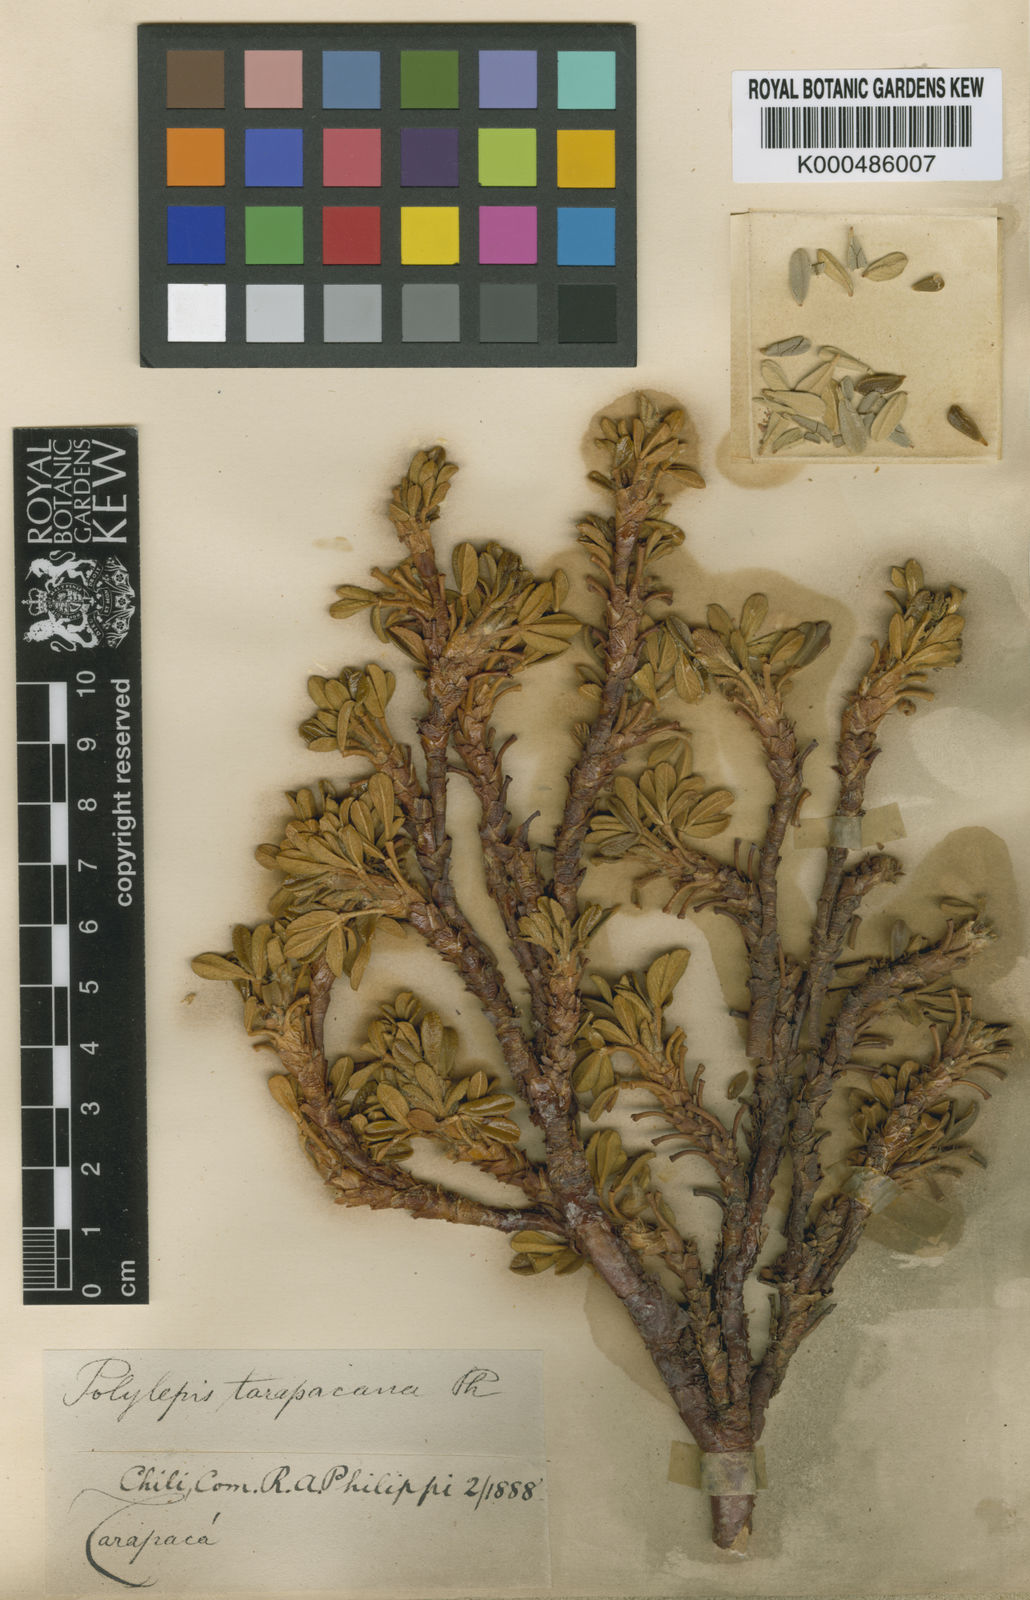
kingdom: Plantae
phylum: Tracheophyta
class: Magnoliopsida
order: Rosales
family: Rosaceae
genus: Polylepis
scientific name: Polylepis tarapacana
